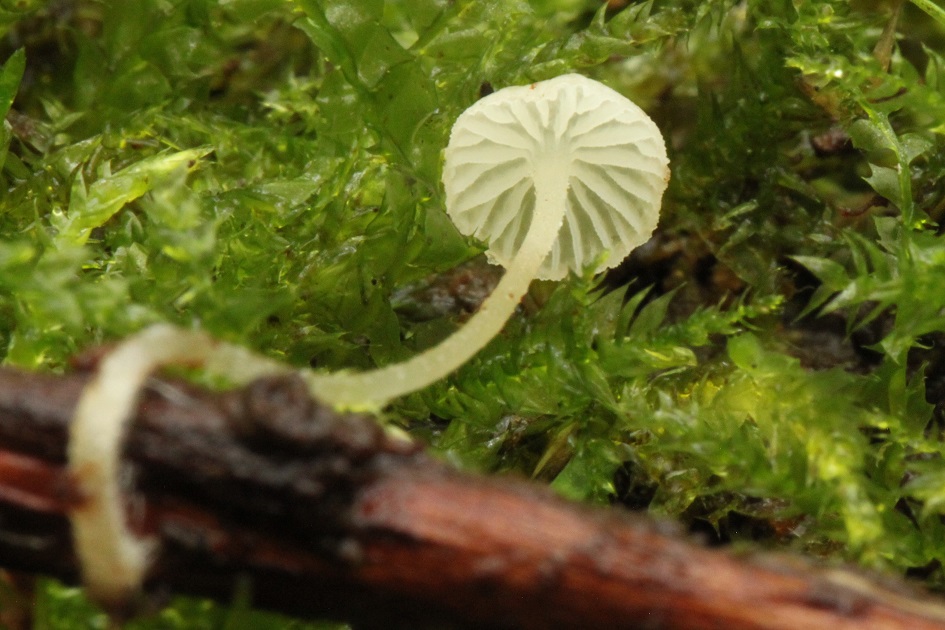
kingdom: Fungi
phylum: Basidiomycota
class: Agaricomycetes
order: Agaricales
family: Porotheleaceae
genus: Phloeomana
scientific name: Phloeomana speirea
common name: kvist-huesvamp
